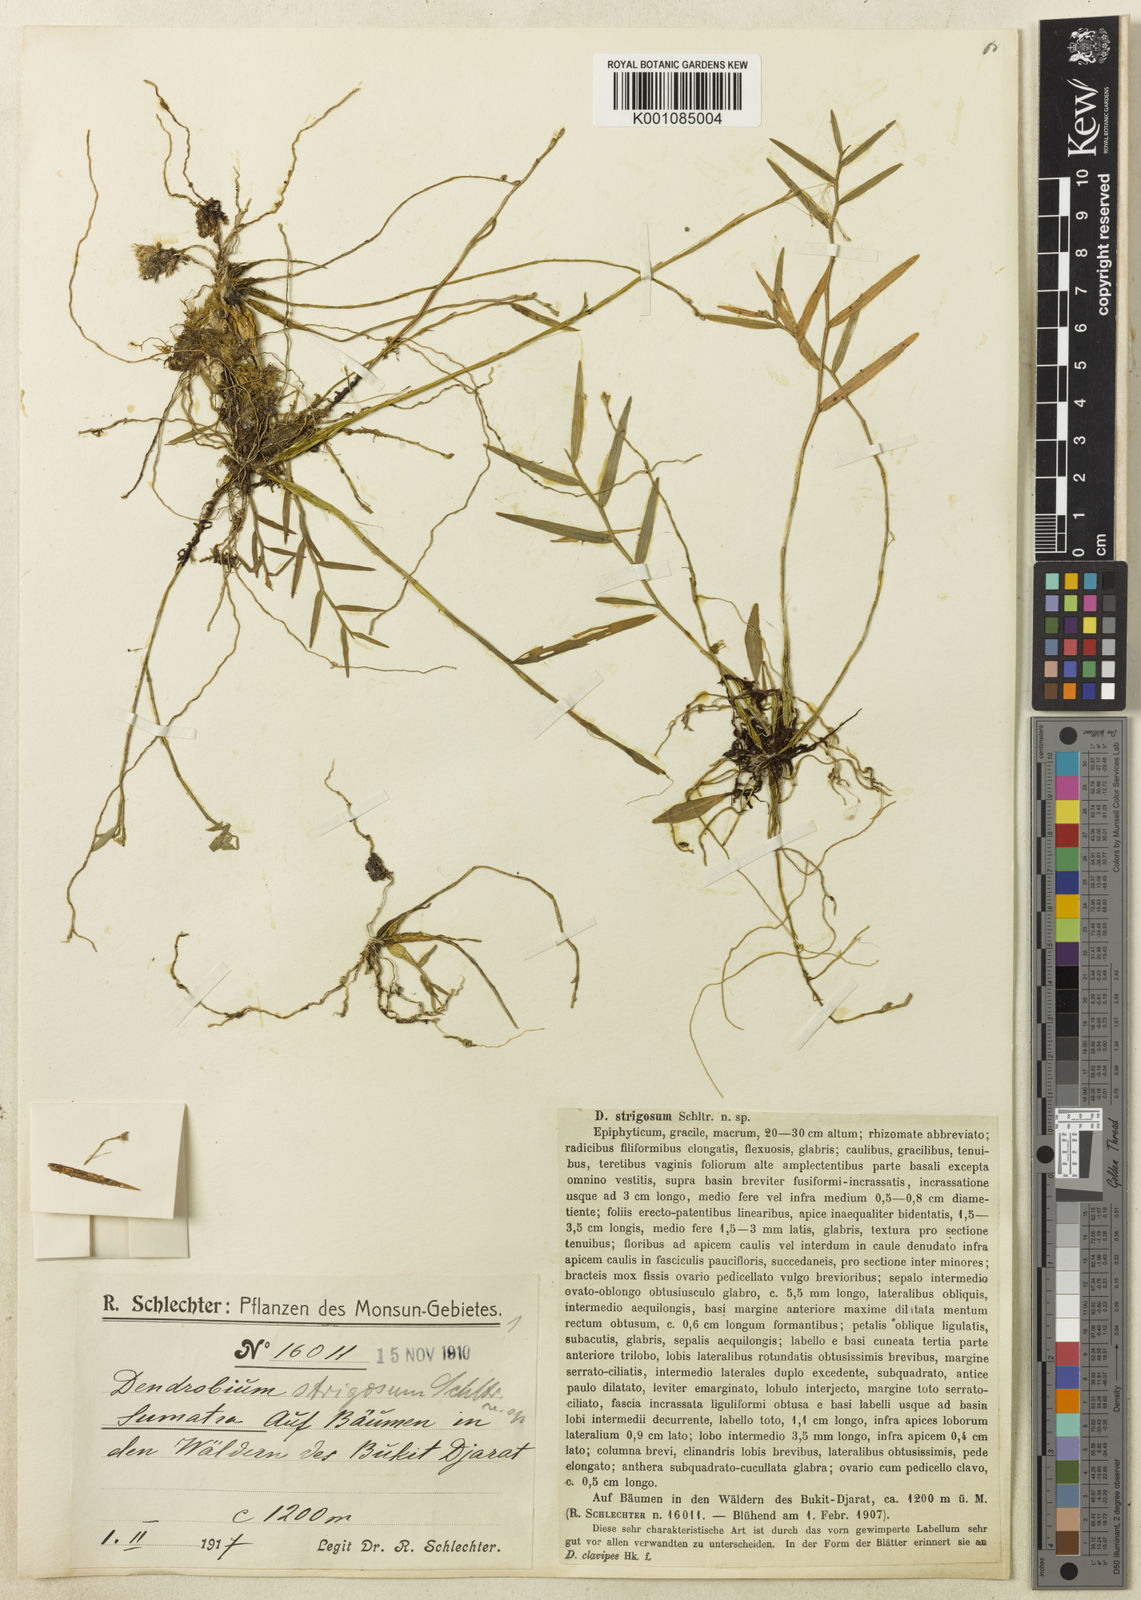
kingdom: Plantae
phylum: Tracheophyta
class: Liliopsida
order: Asparagales
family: Orchidaceae
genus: Dendrobium
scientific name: Dendrobium tetraedre
